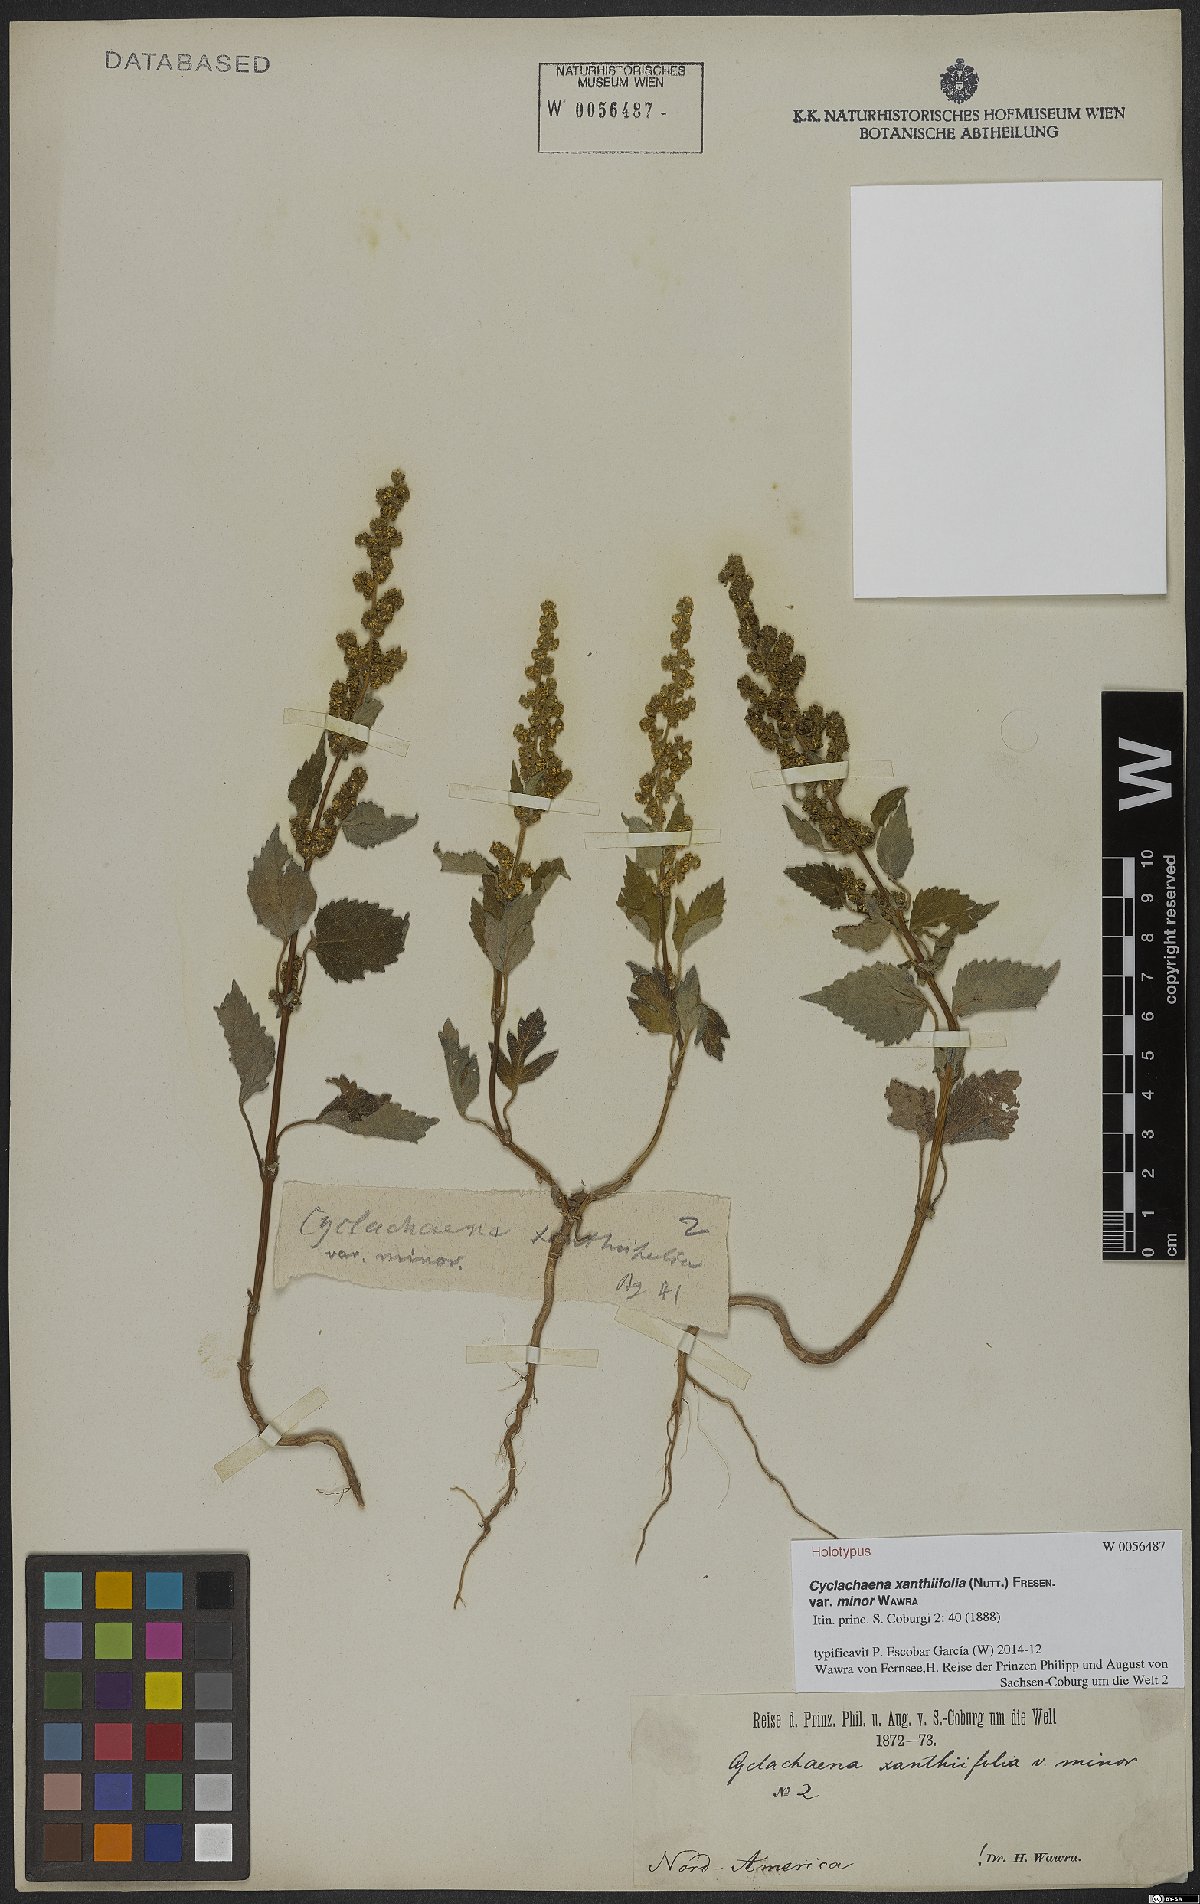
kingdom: Plantae
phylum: Tracheophyta
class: Magnoliopsida
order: Asterales
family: Asteraceae
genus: Cyclachaena
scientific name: Cyclachaena xanthiifolia
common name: Giant sumpweed
